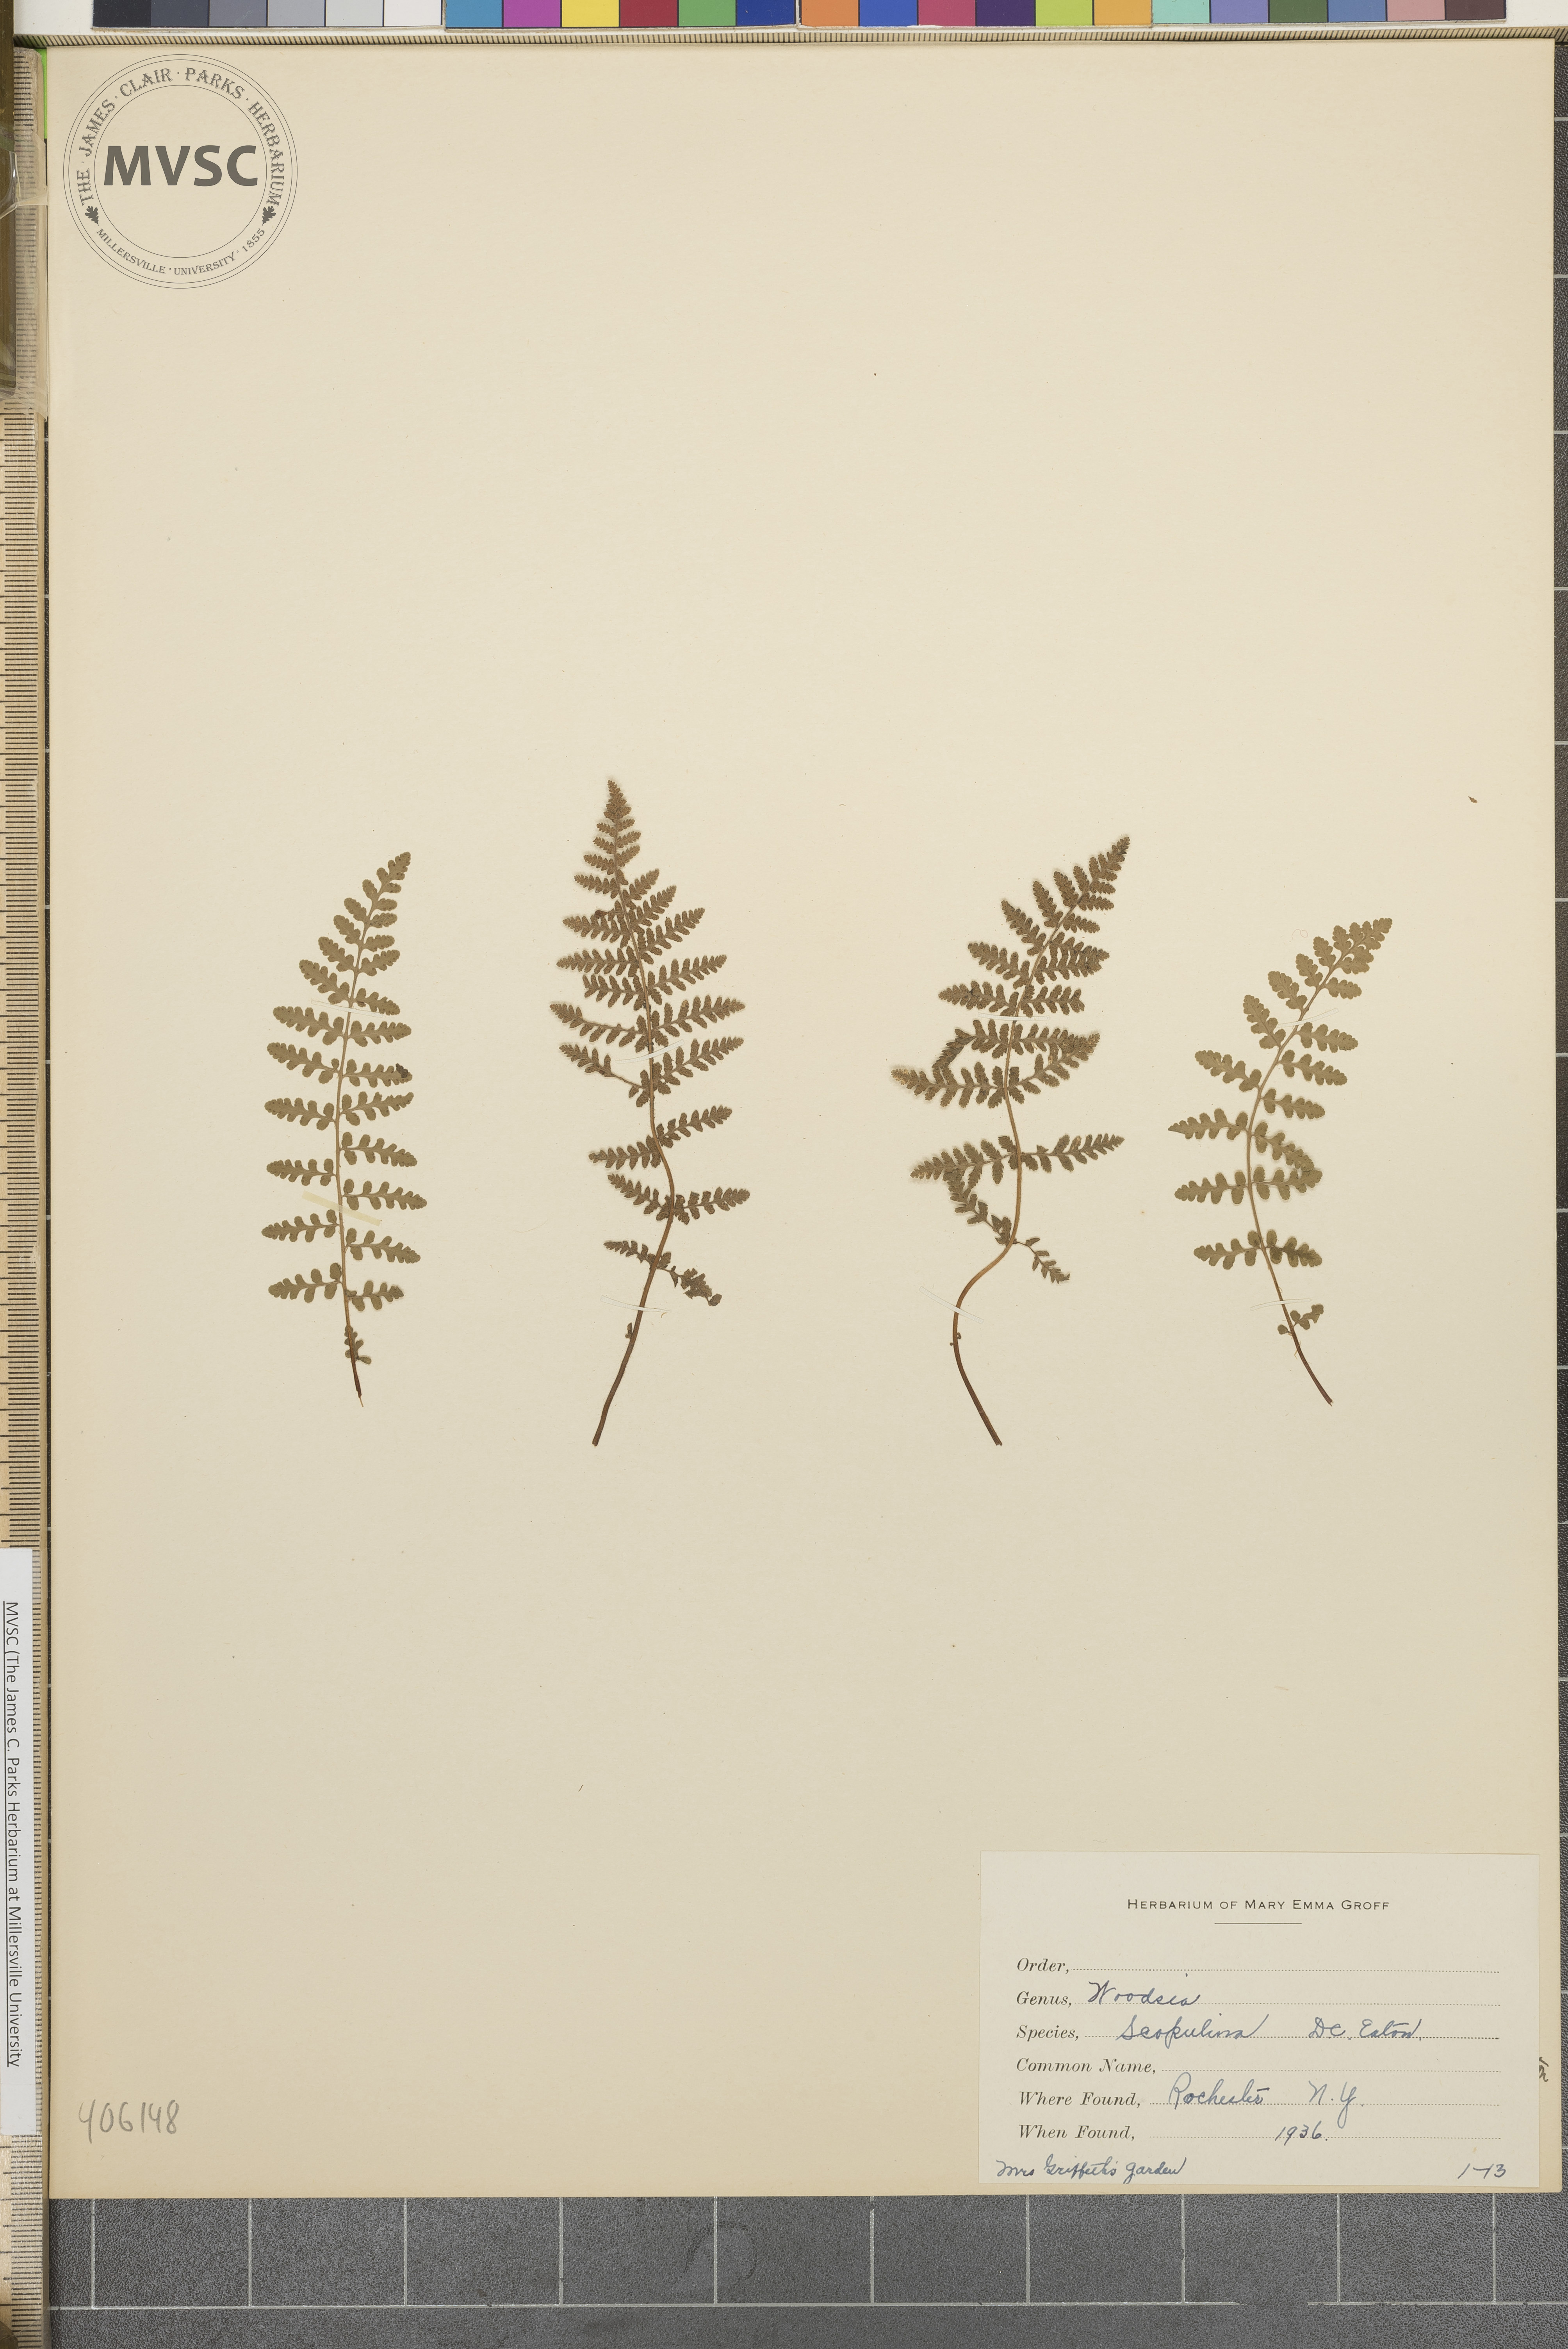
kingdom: Plantae
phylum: Tracheophyta
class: Polypodiopsida
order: Polypodiales
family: Woodsiaceae
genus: Physematium
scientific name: Physematium scopulinum
